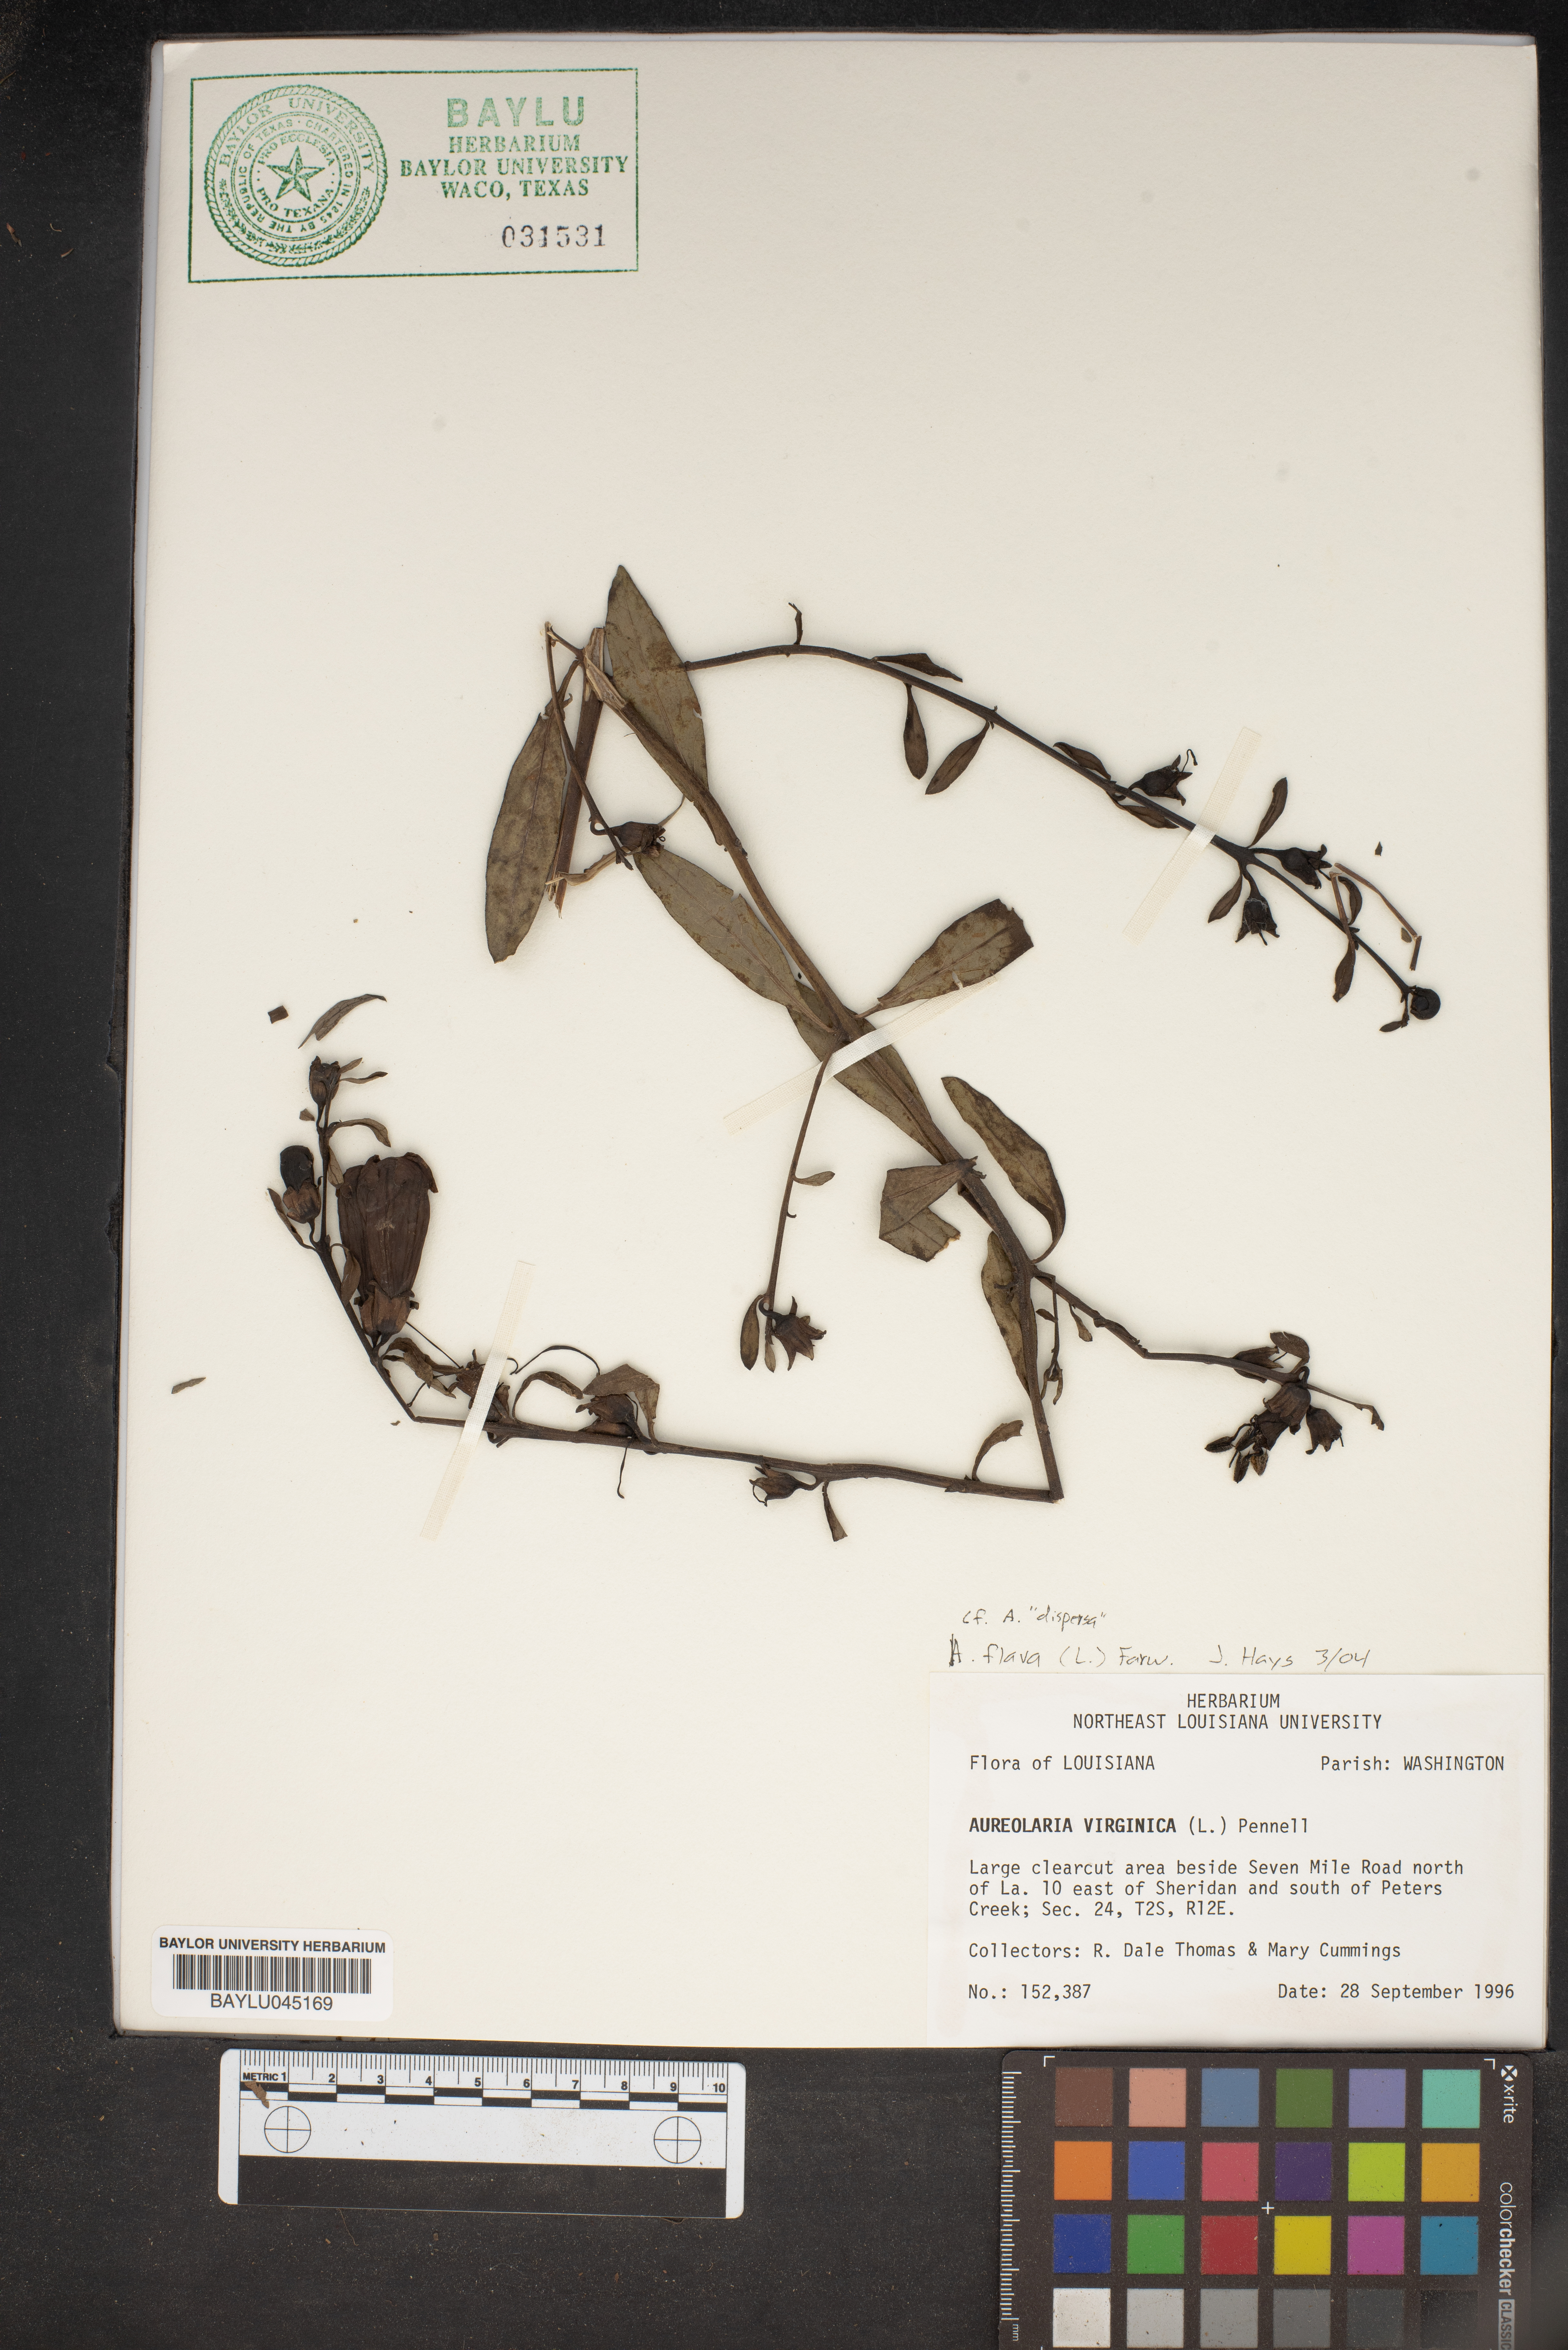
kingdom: Plantae
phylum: Tracheophyta
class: Magnoliopsida
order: Lamiales
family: Orobanchaceae
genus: Aureolaria
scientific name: Aureolaria virginica
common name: Downy false foxglove
